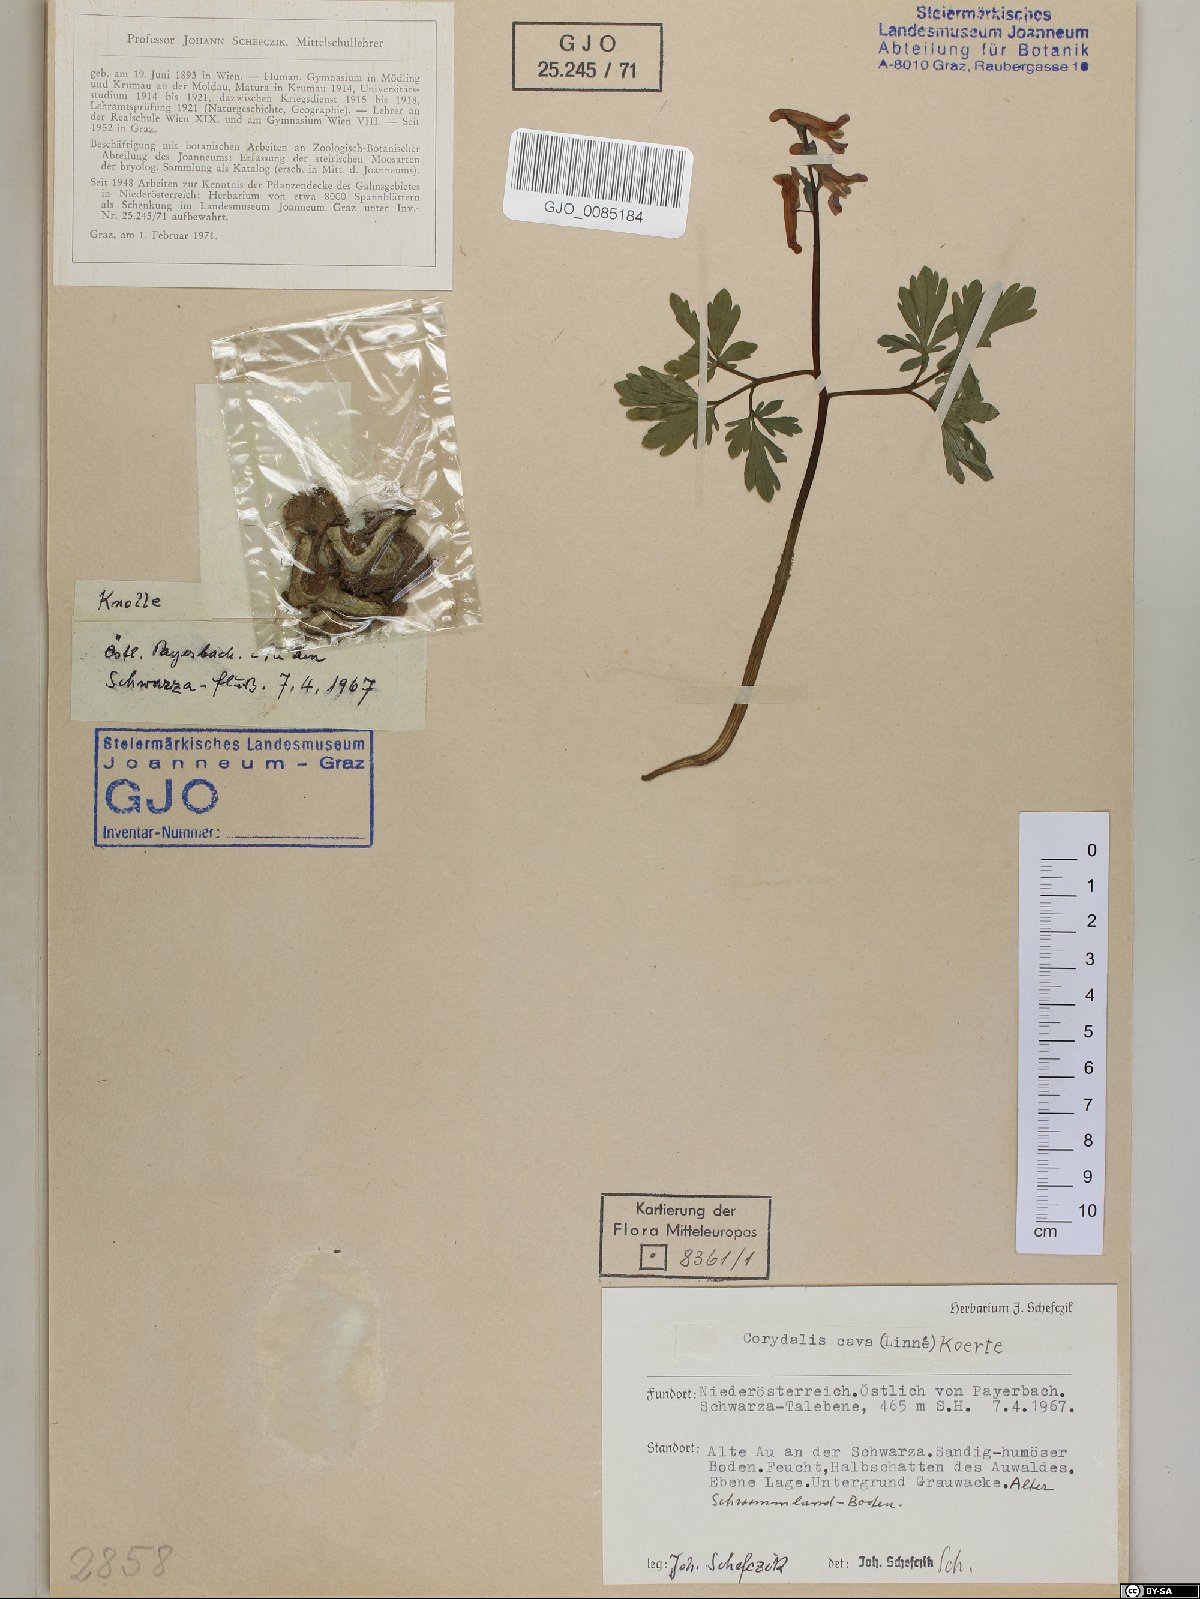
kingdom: Plantae
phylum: Tracheophyta
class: Magnoliopsida
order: Ranunculales
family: Papaveraceae
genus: Corydalis
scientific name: Corydalis cava
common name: Hollowroot
